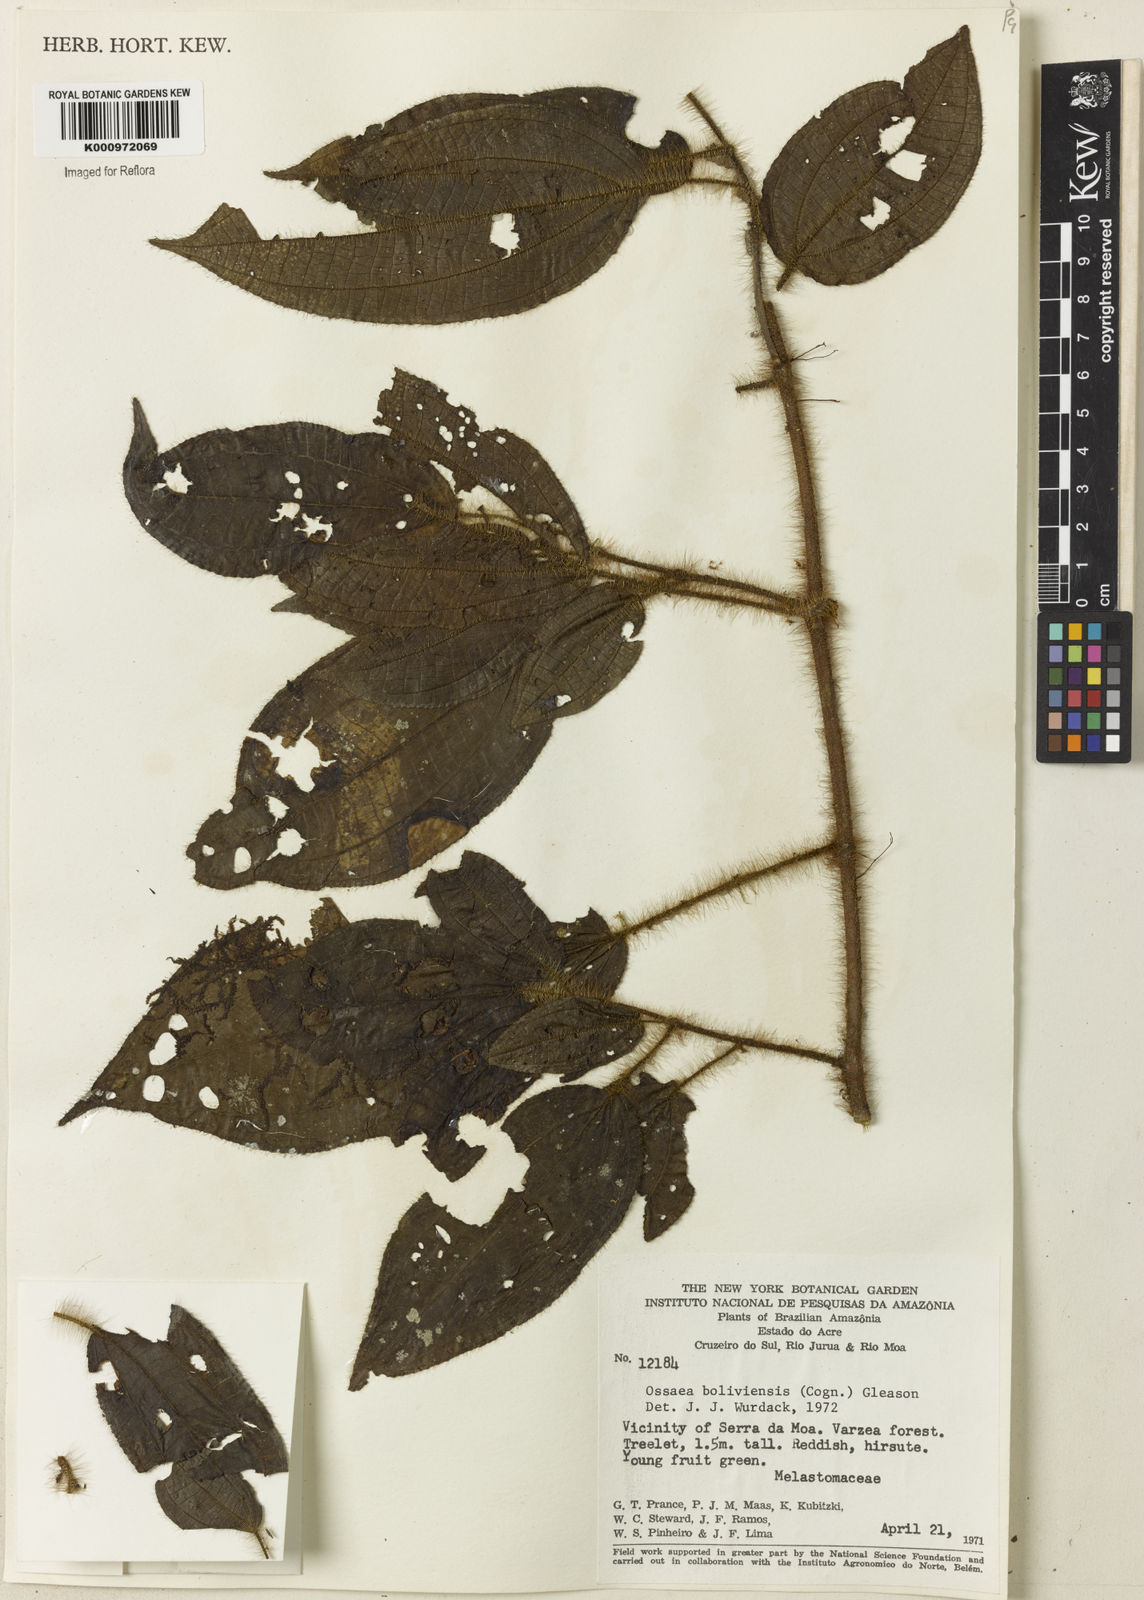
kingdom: Plantae
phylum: Tracheophyta
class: Magnoliopsida
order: Myrtales
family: Melastomataceae
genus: Miconia
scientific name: Miconia violascens
